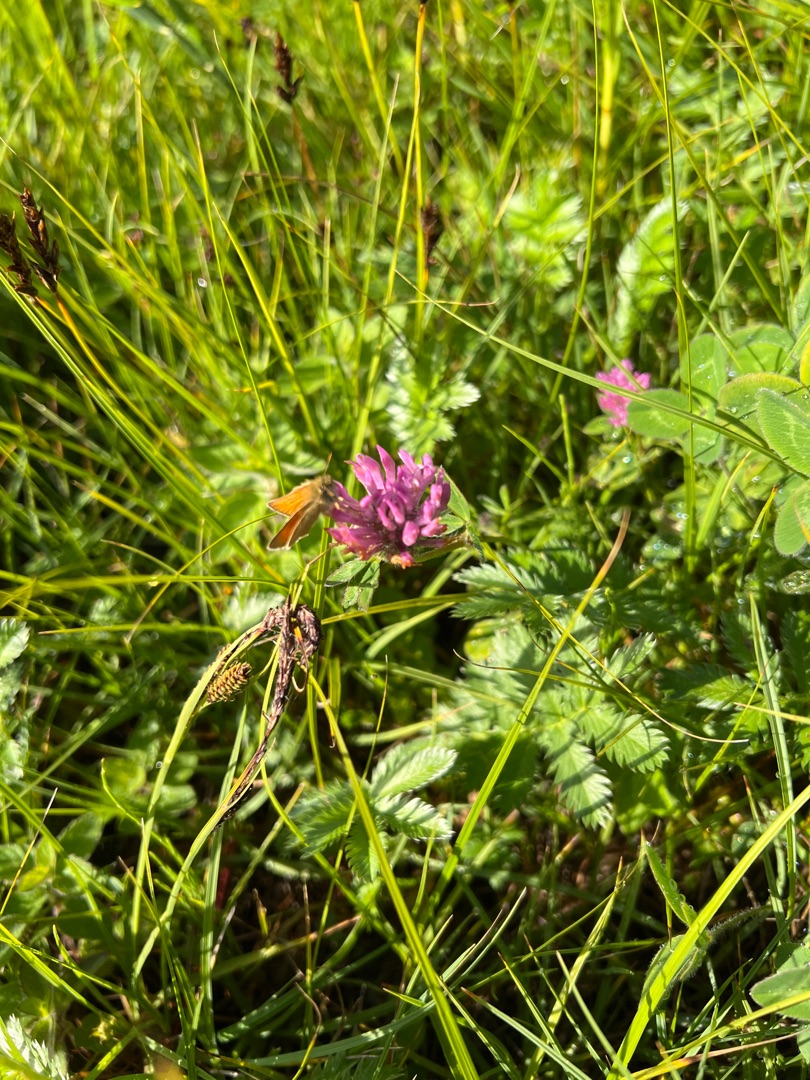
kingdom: Plantae
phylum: Tracheophyta
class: Magnoliopsida
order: Fabales
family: Fabaceae
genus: Trifolium
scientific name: Trifolium
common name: Kløverslægten
